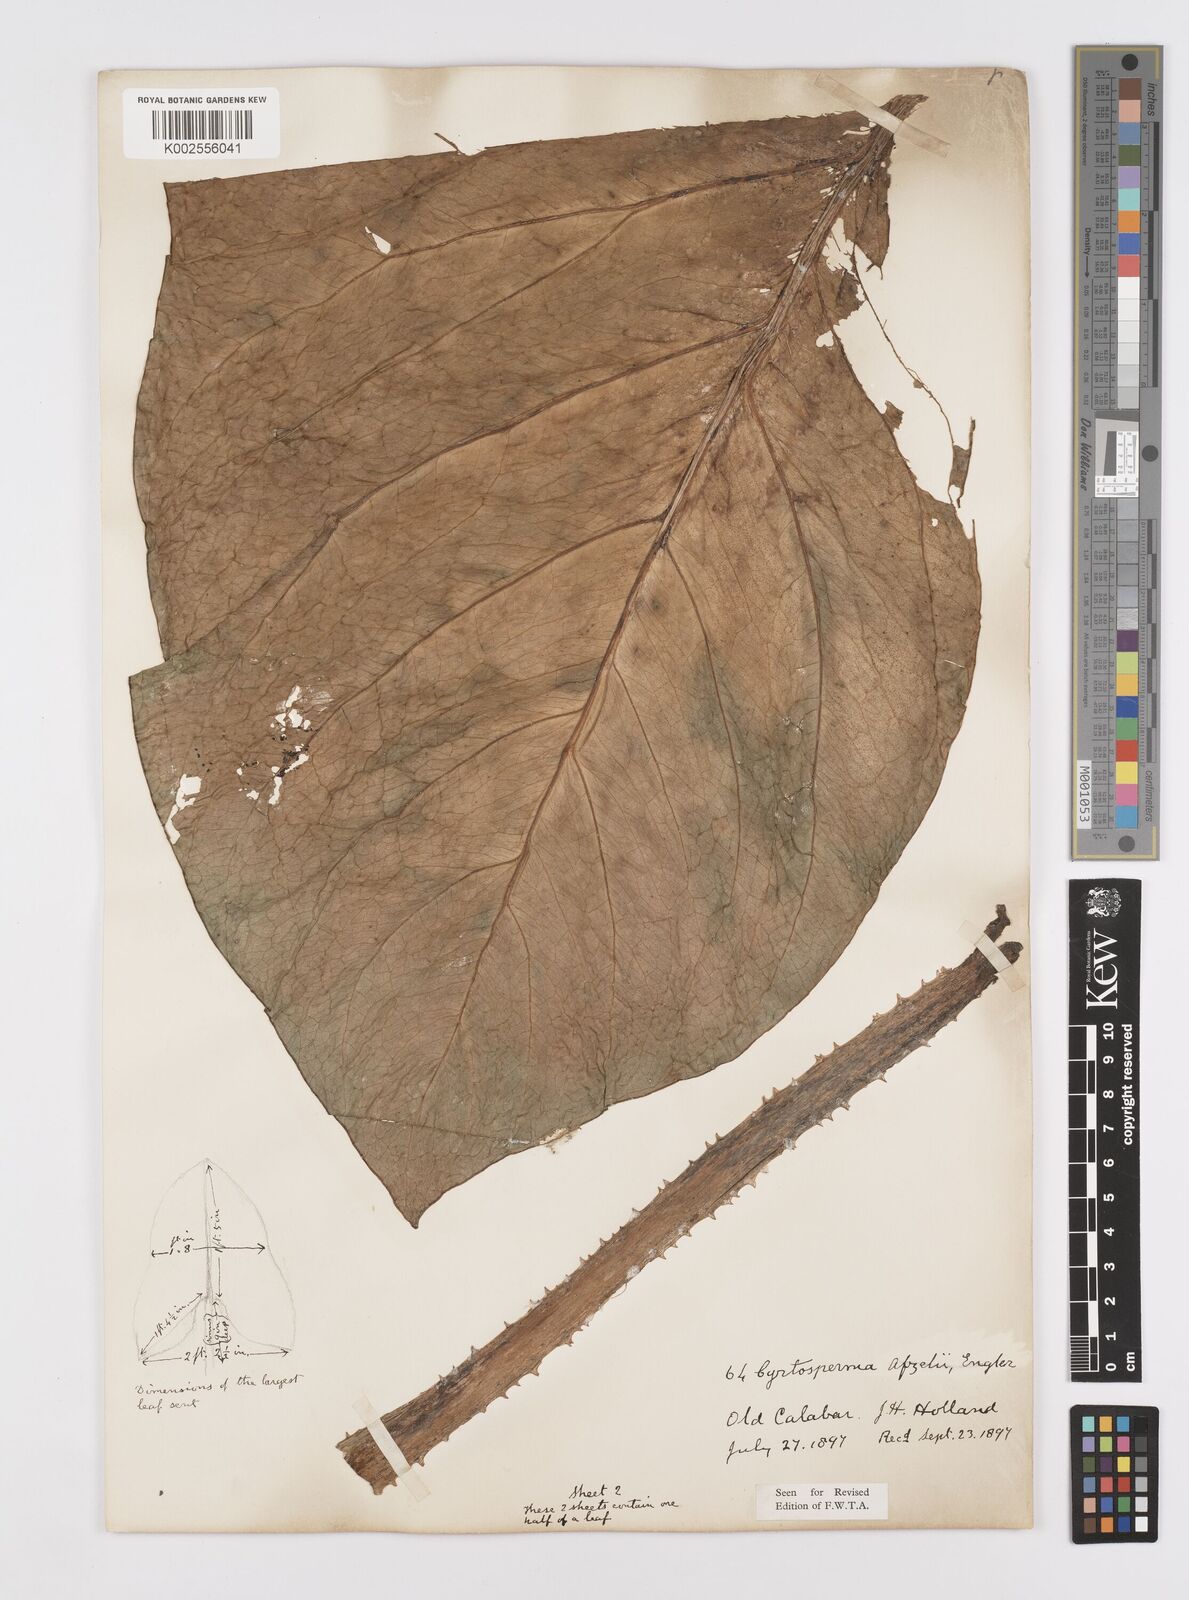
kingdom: Plantae
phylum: Tracheophyta
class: Liliopsida
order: Alismatales
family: Araceae
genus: Lasimorpha
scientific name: Lasimorpha senegalensis
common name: Swamp arum
